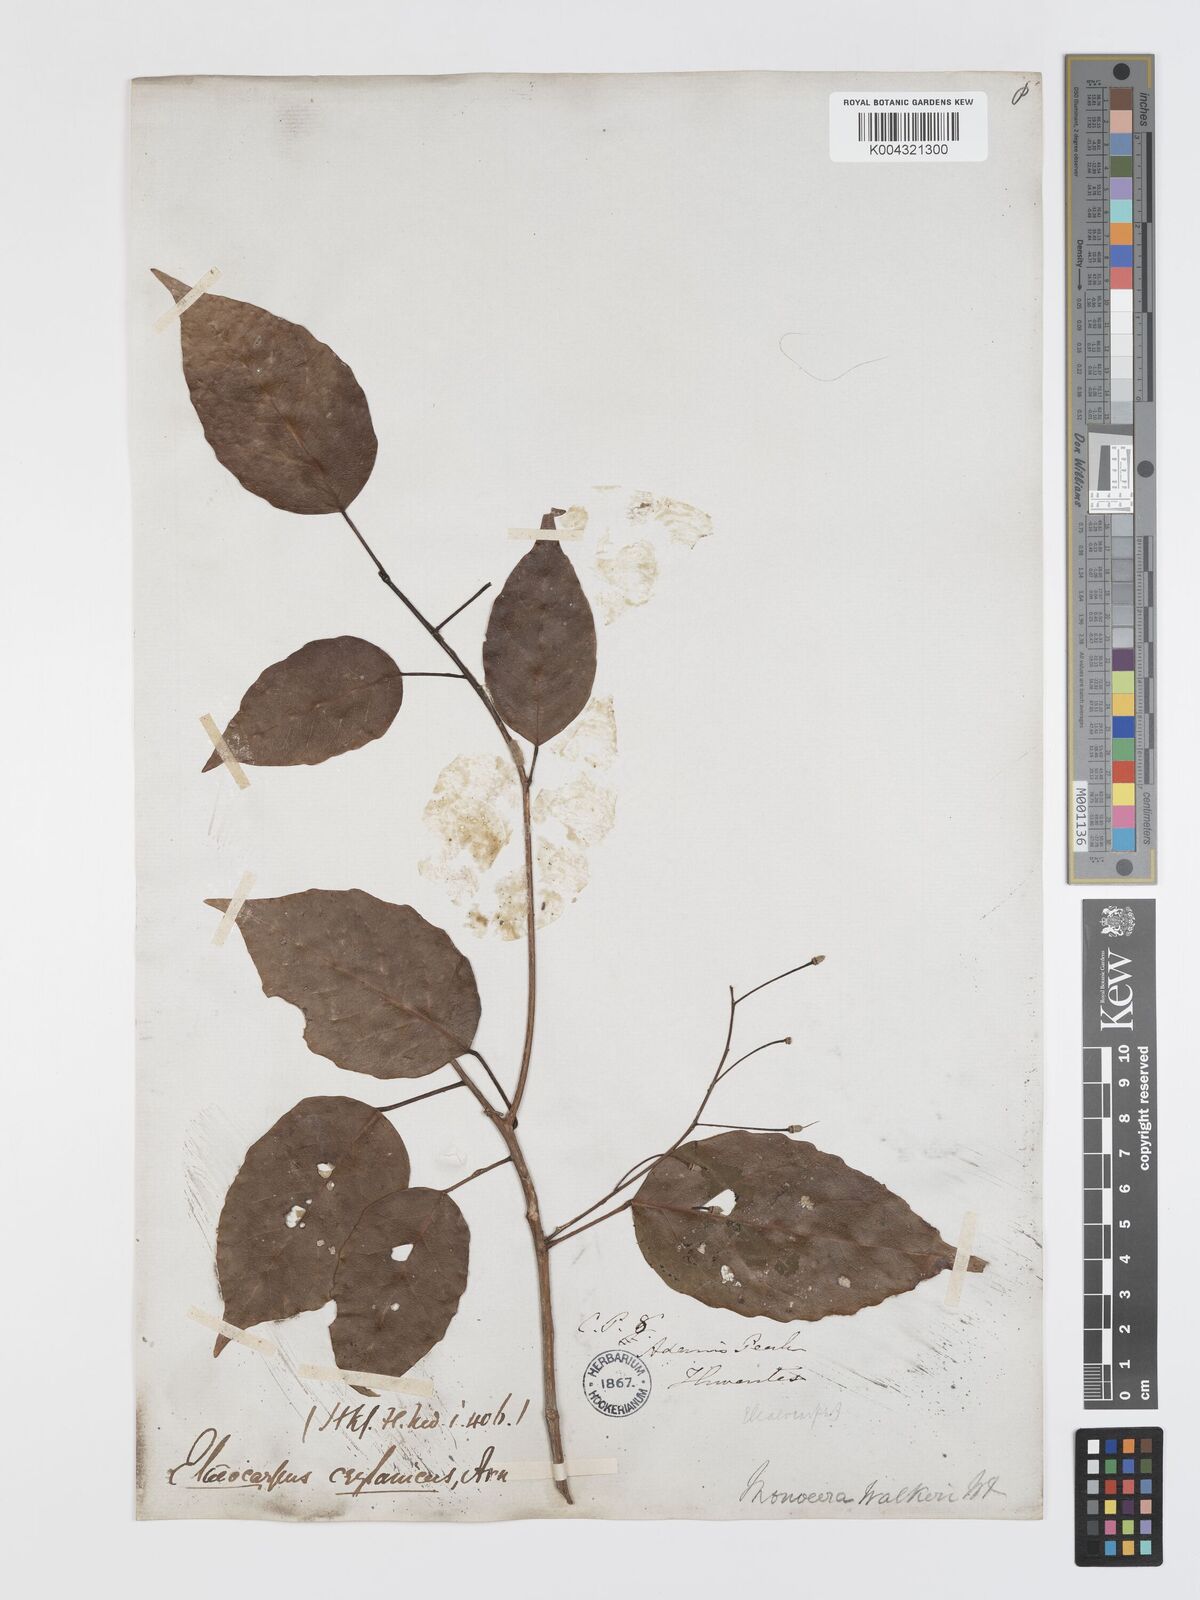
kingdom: Plantae
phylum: Tracheophyta
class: Magnoliopsida
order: Oxalidales
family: Elaeocarpaceae
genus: Elaeocarpus
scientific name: Elaeocarpus ceylanicus
